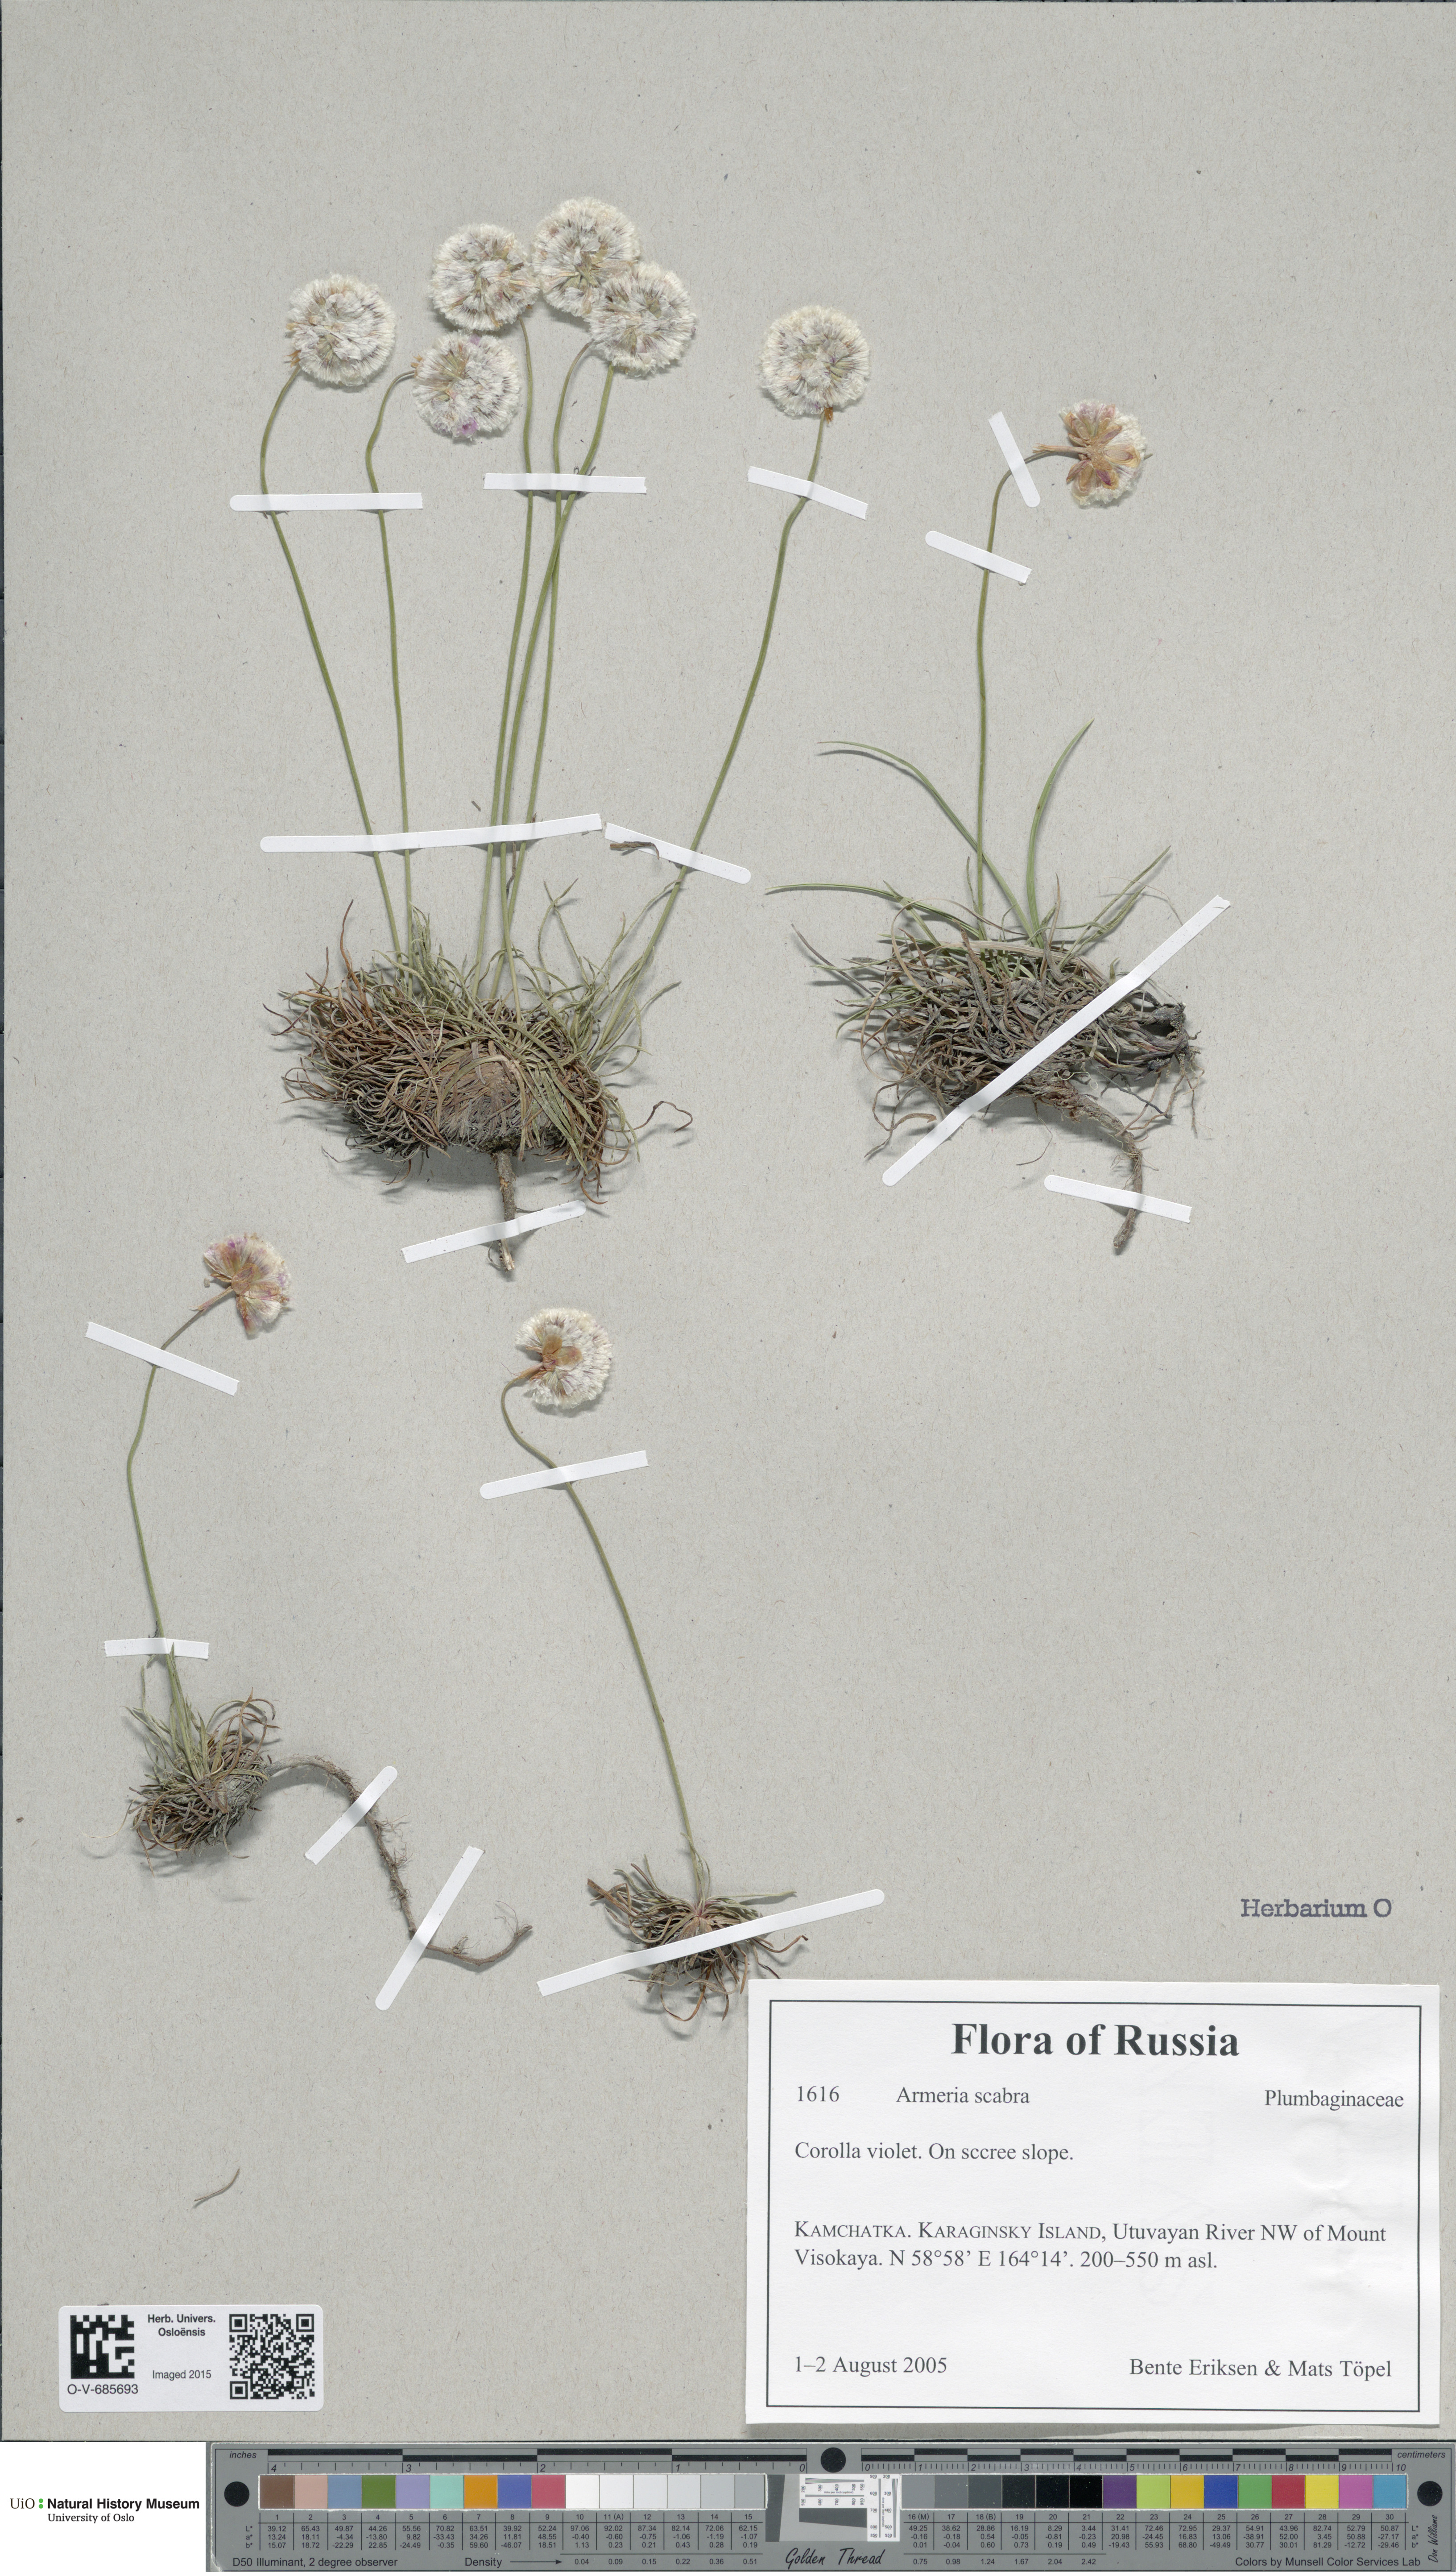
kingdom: Plantae
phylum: Tracheophyta
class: Magnoliopsida
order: Caryophyllales
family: Plumbaginaceae
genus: Armeria
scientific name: Armeria maritima
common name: Thrift
